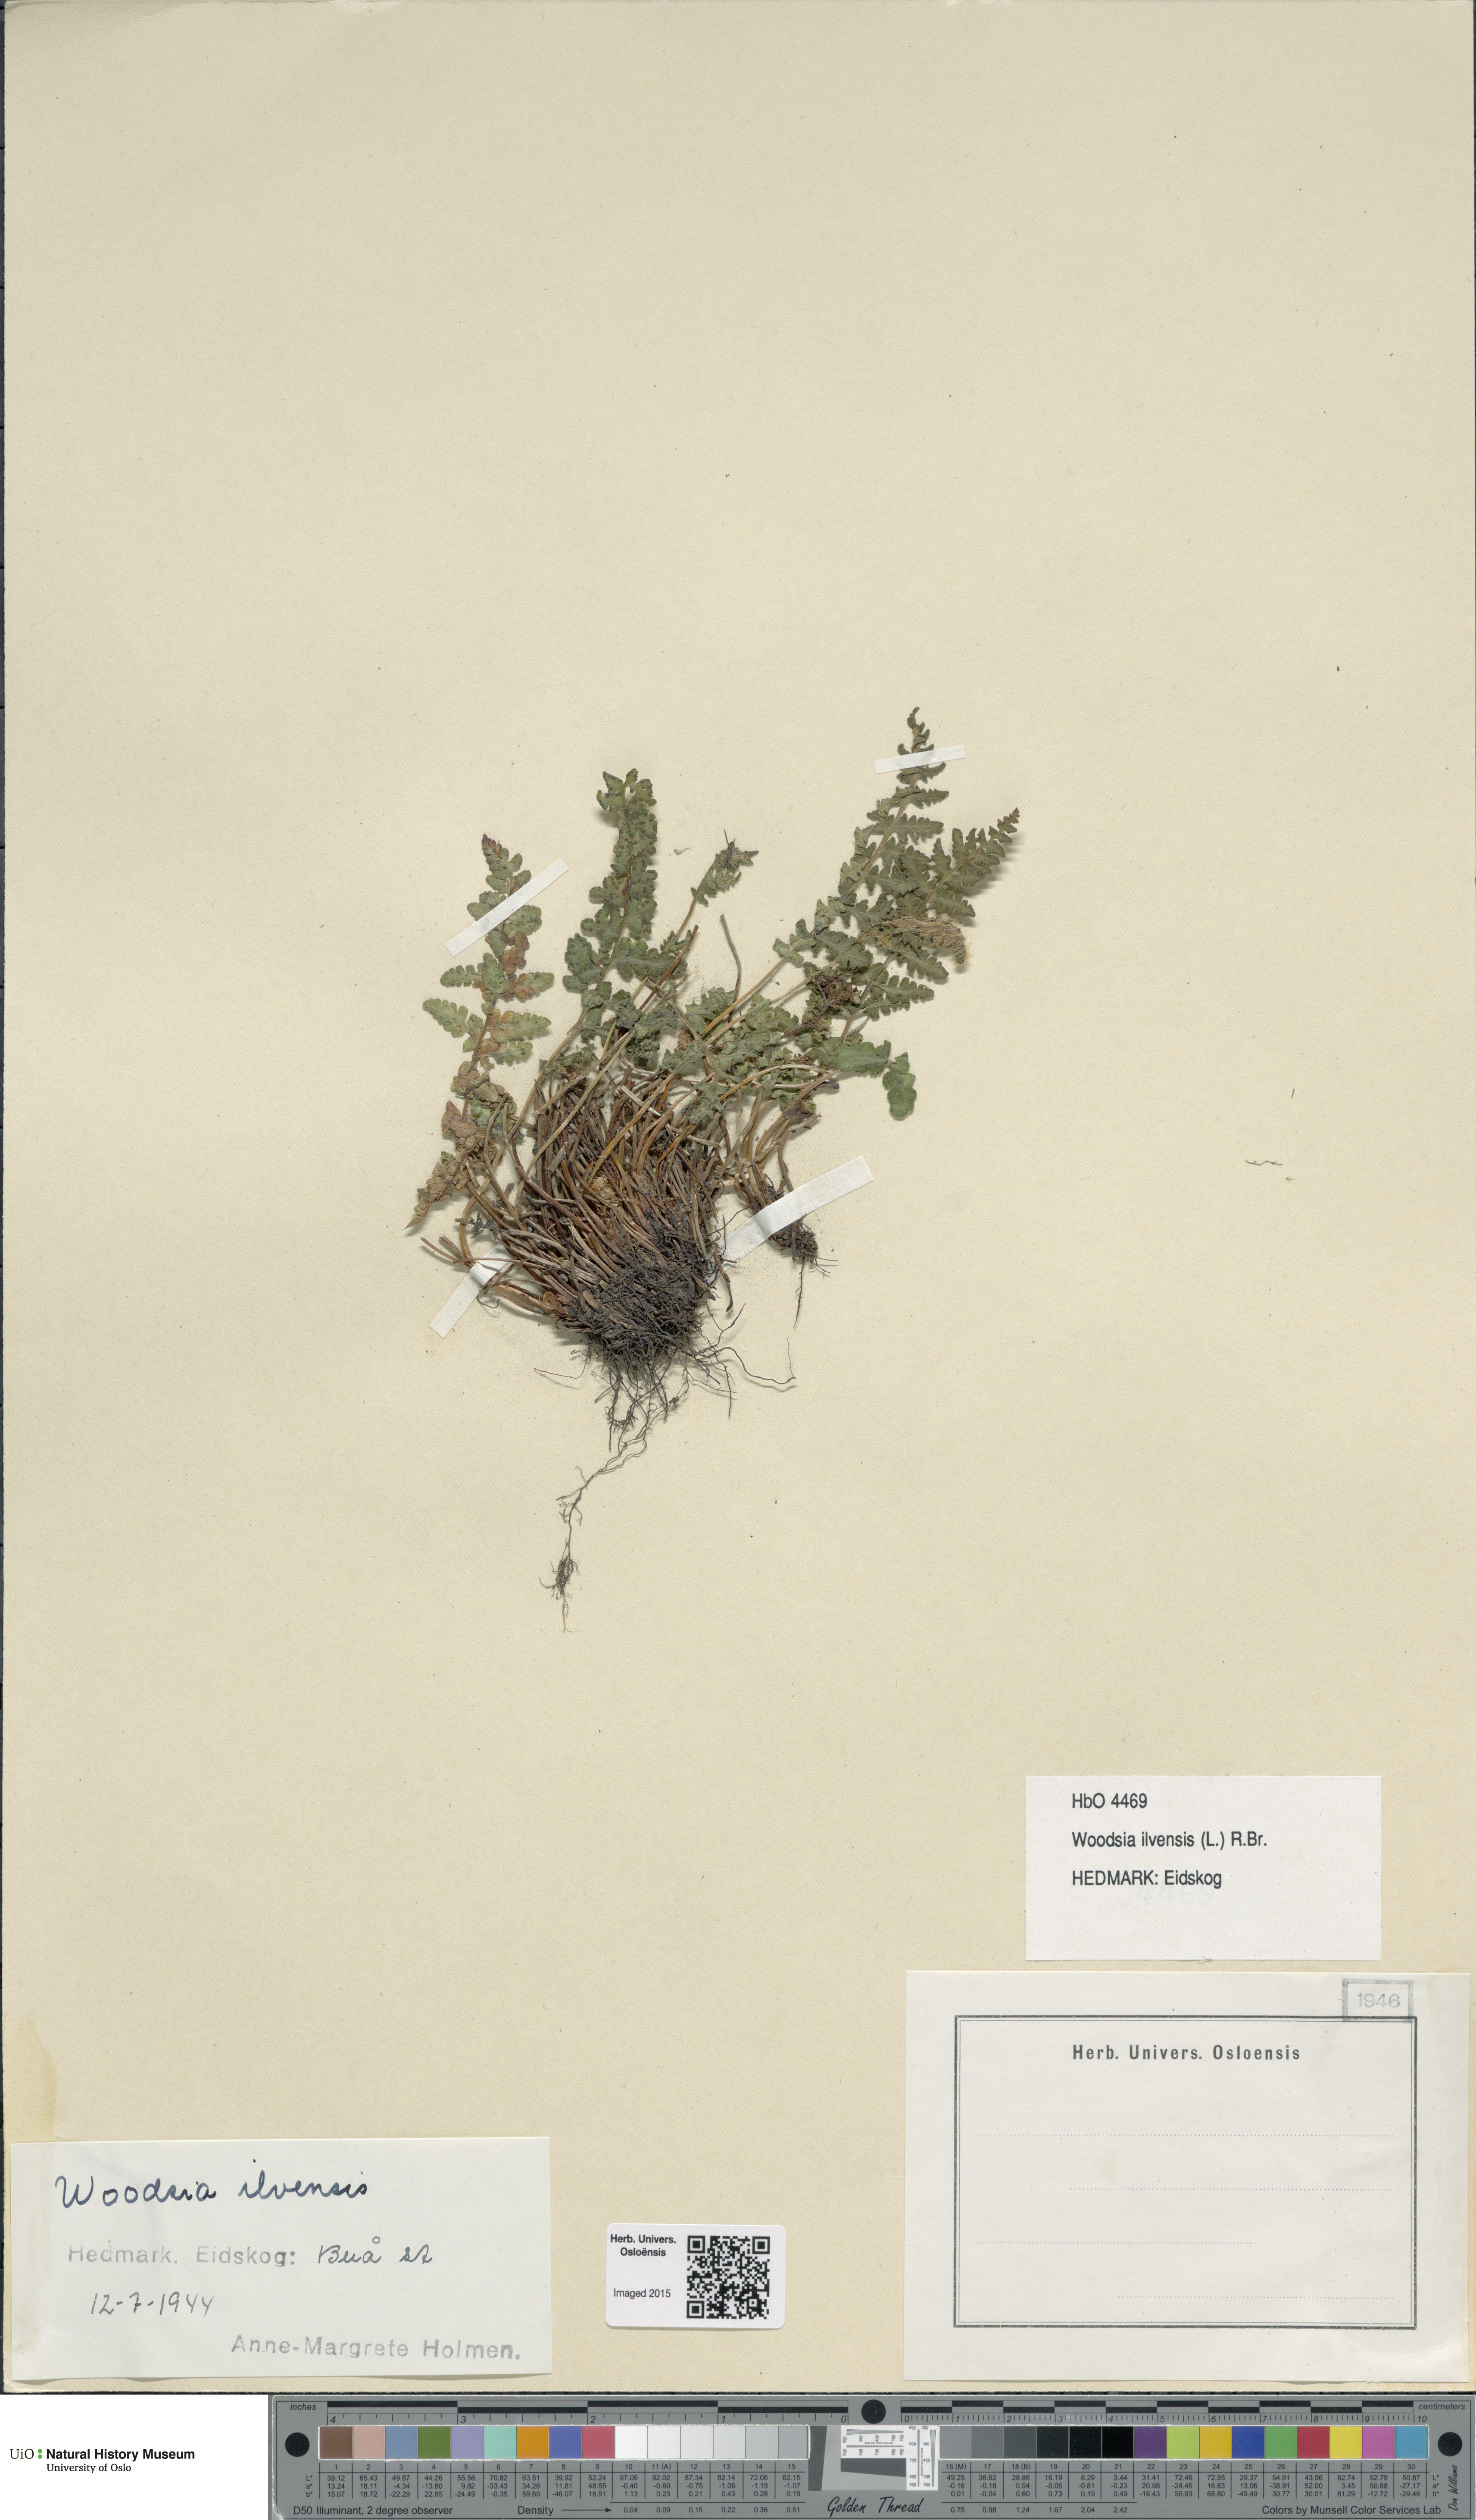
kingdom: Plantae
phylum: Tracheophyta
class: Polypodiopsida
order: Polypodiales
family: Woodsiaceae
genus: Woodsia
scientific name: Woodsia ilvensis
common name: Fragrant woodsia
